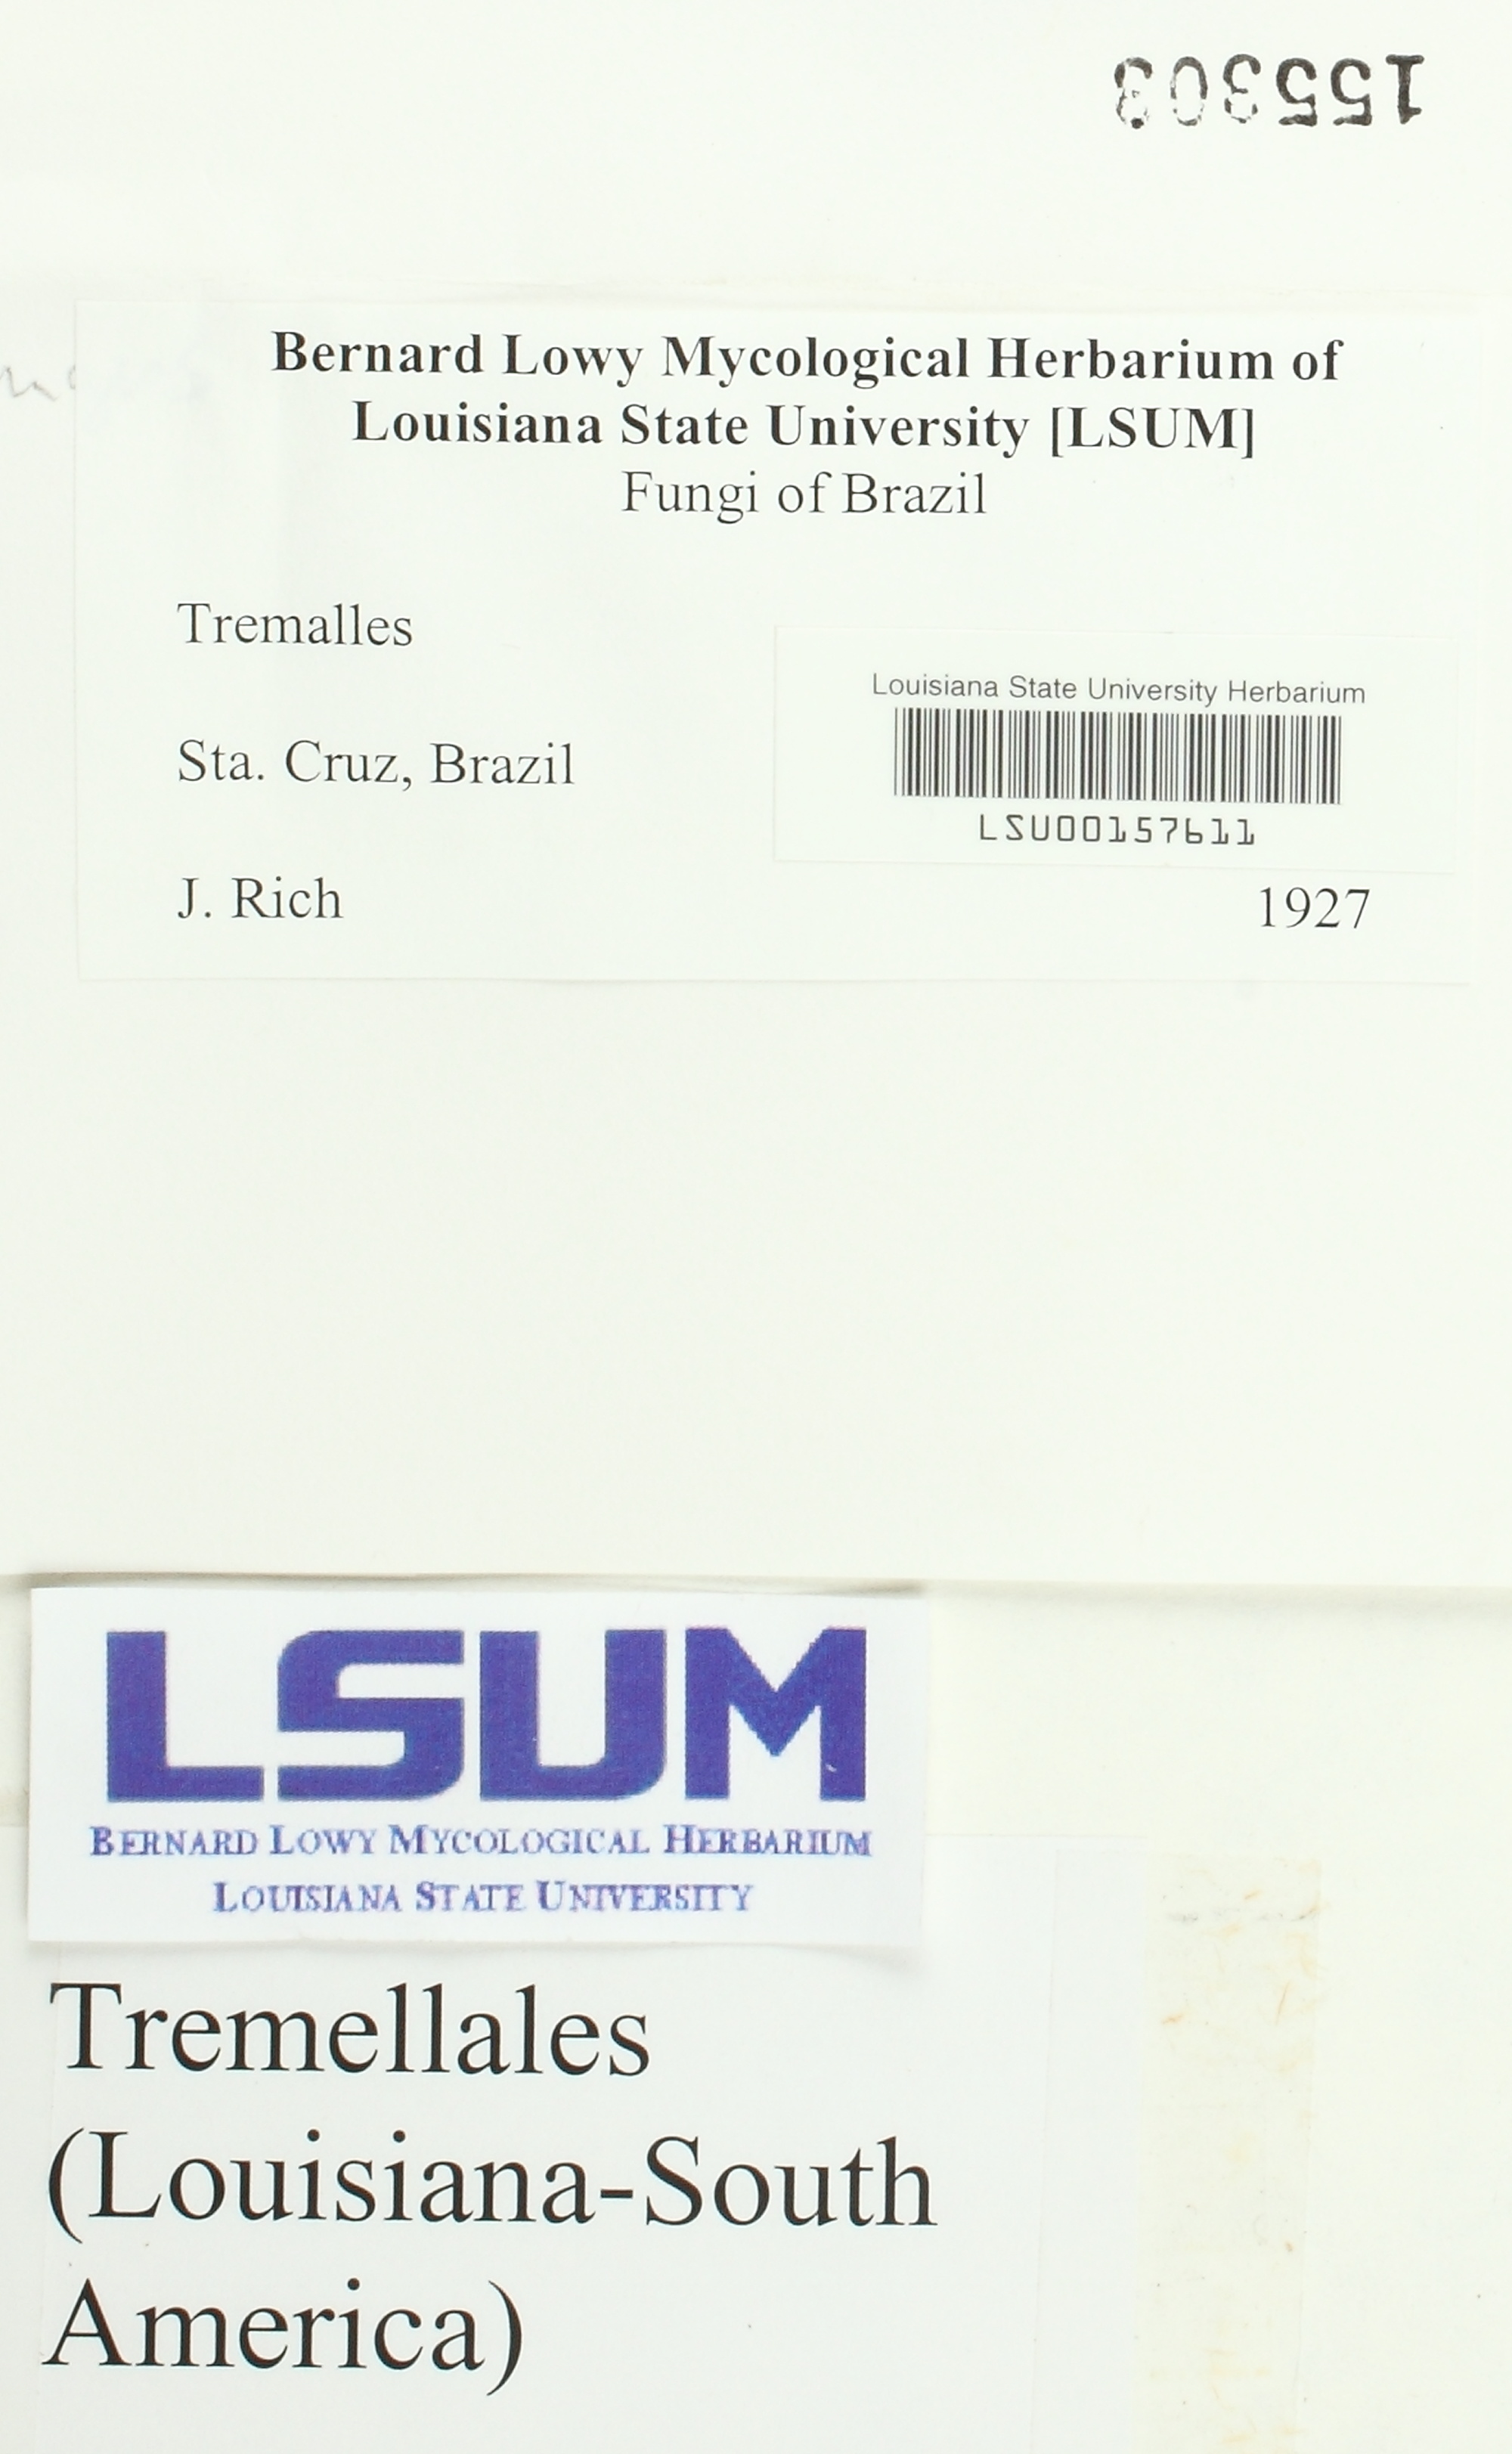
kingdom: Fungi
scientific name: Fungi
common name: Fungi
